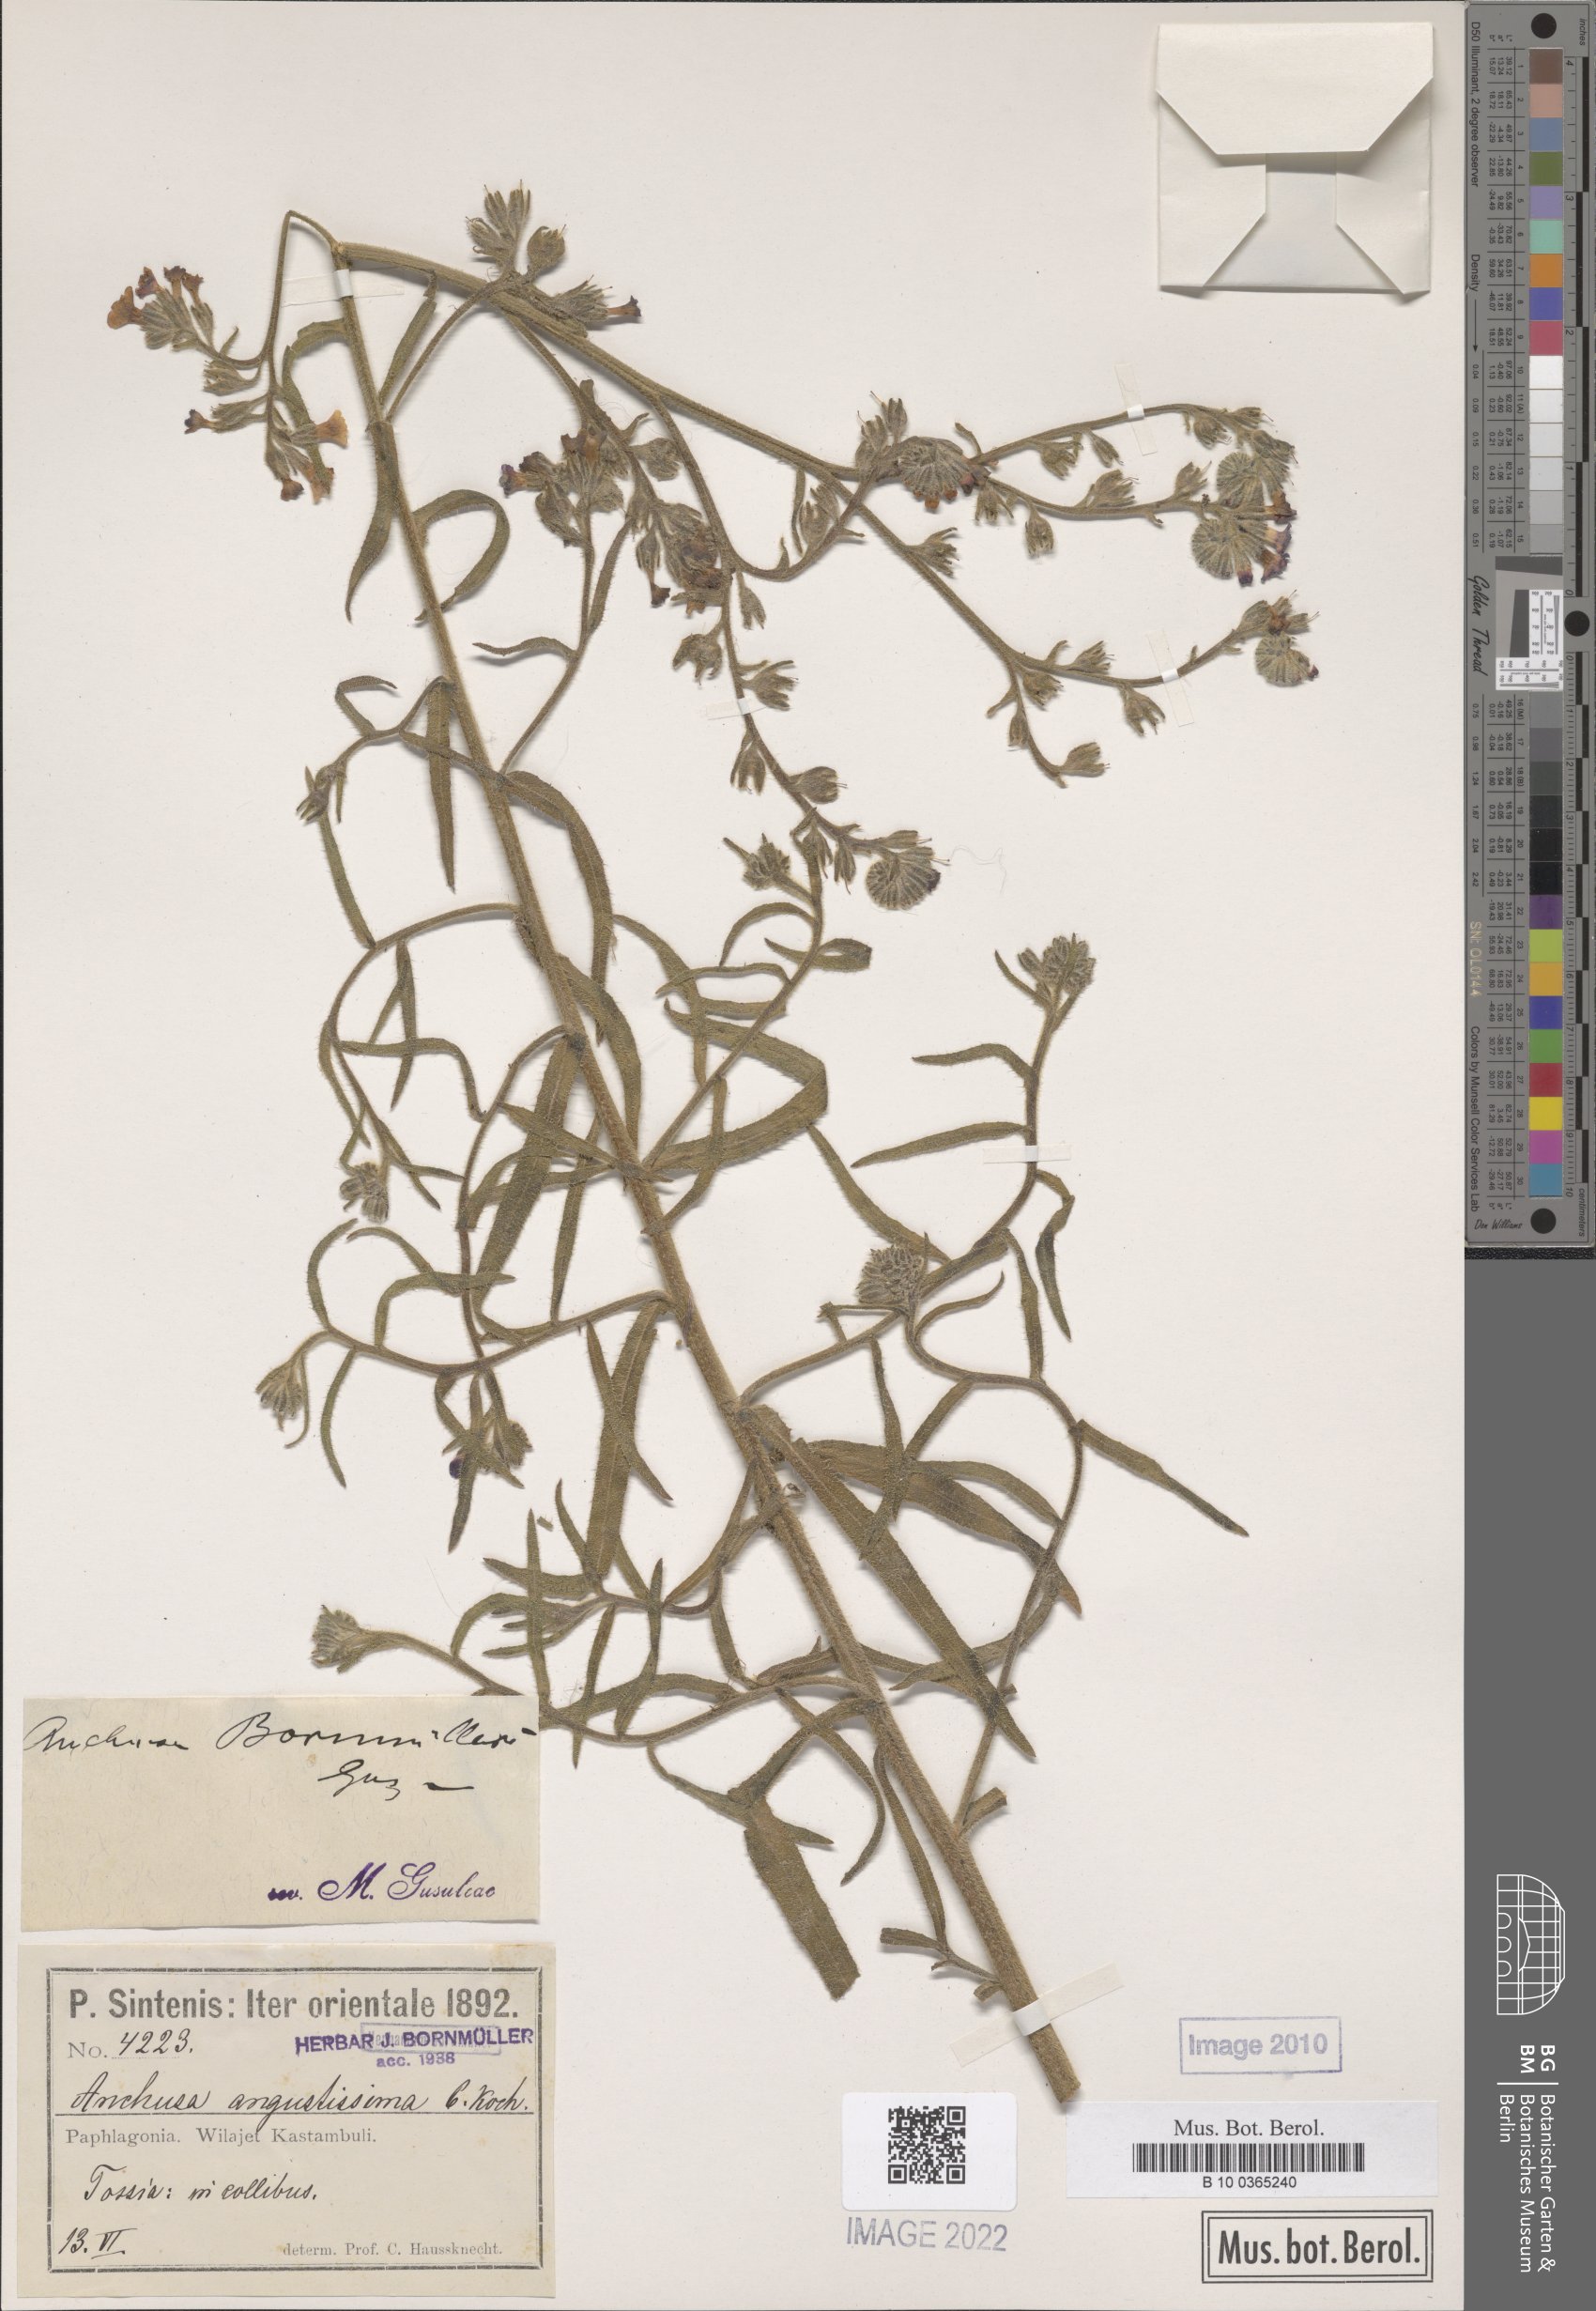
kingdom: Plantae
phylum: Tracheophyta
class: Magnoliopsida
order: Boraginales
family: Boraginaceae
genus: Anchusa
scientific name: Anchusa leptophylla
